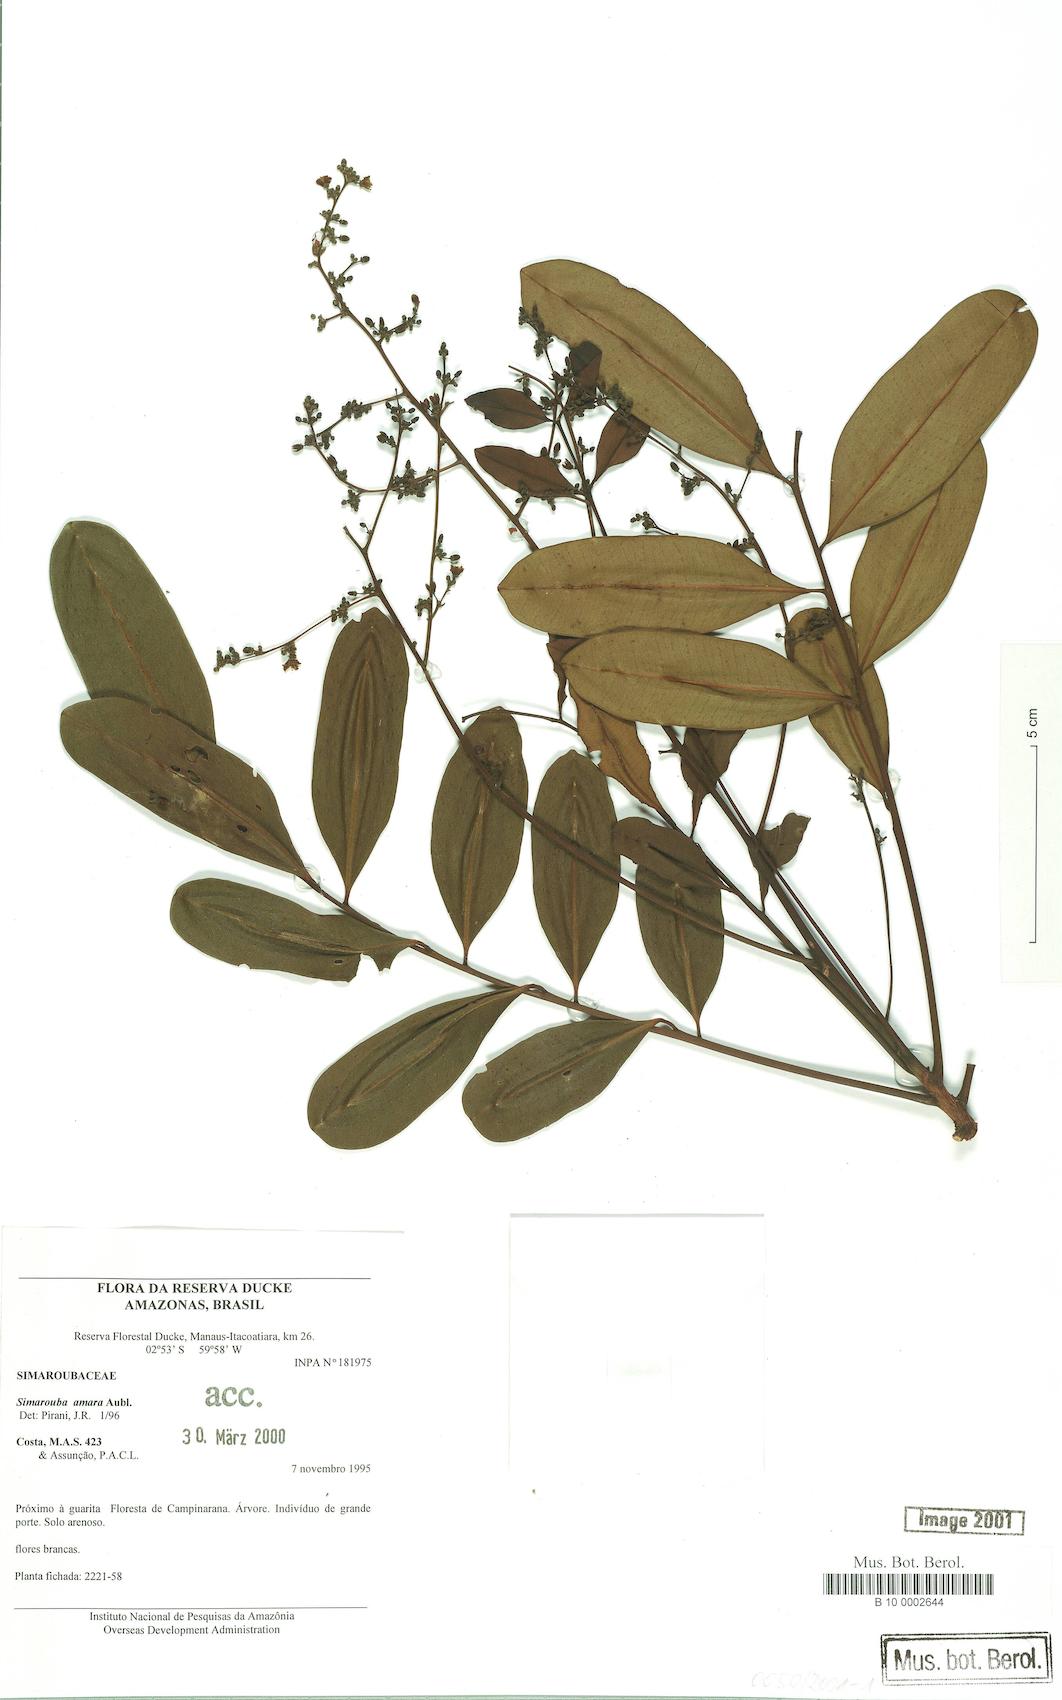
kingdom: Plantae
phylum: Tracheophyta
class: Magnoliopsida
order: Sapindales
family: Simaroubaceae
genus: Simarouba
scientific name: Simarouba amara
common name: Bitterwood
